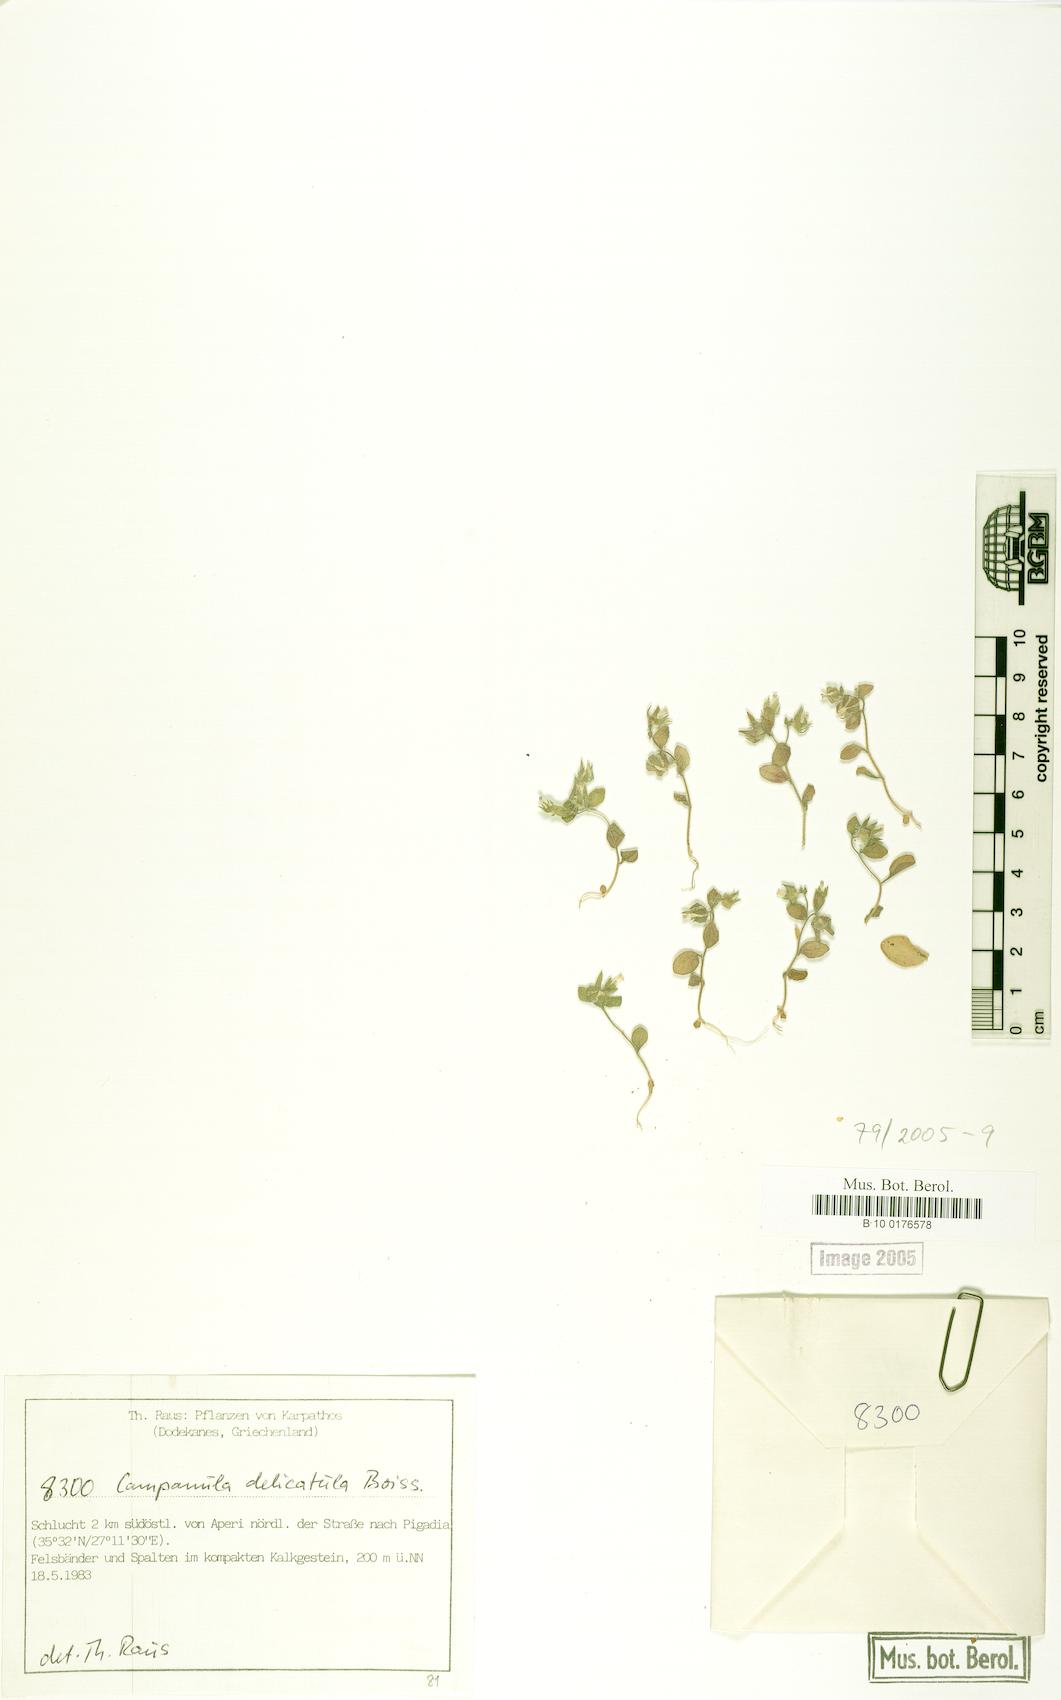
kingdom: Plantae
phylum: Tracheophyta
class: Magnoliopsida
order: Asterales
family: Campanulaceae
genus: Campanula
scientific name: Campanula delicatula
